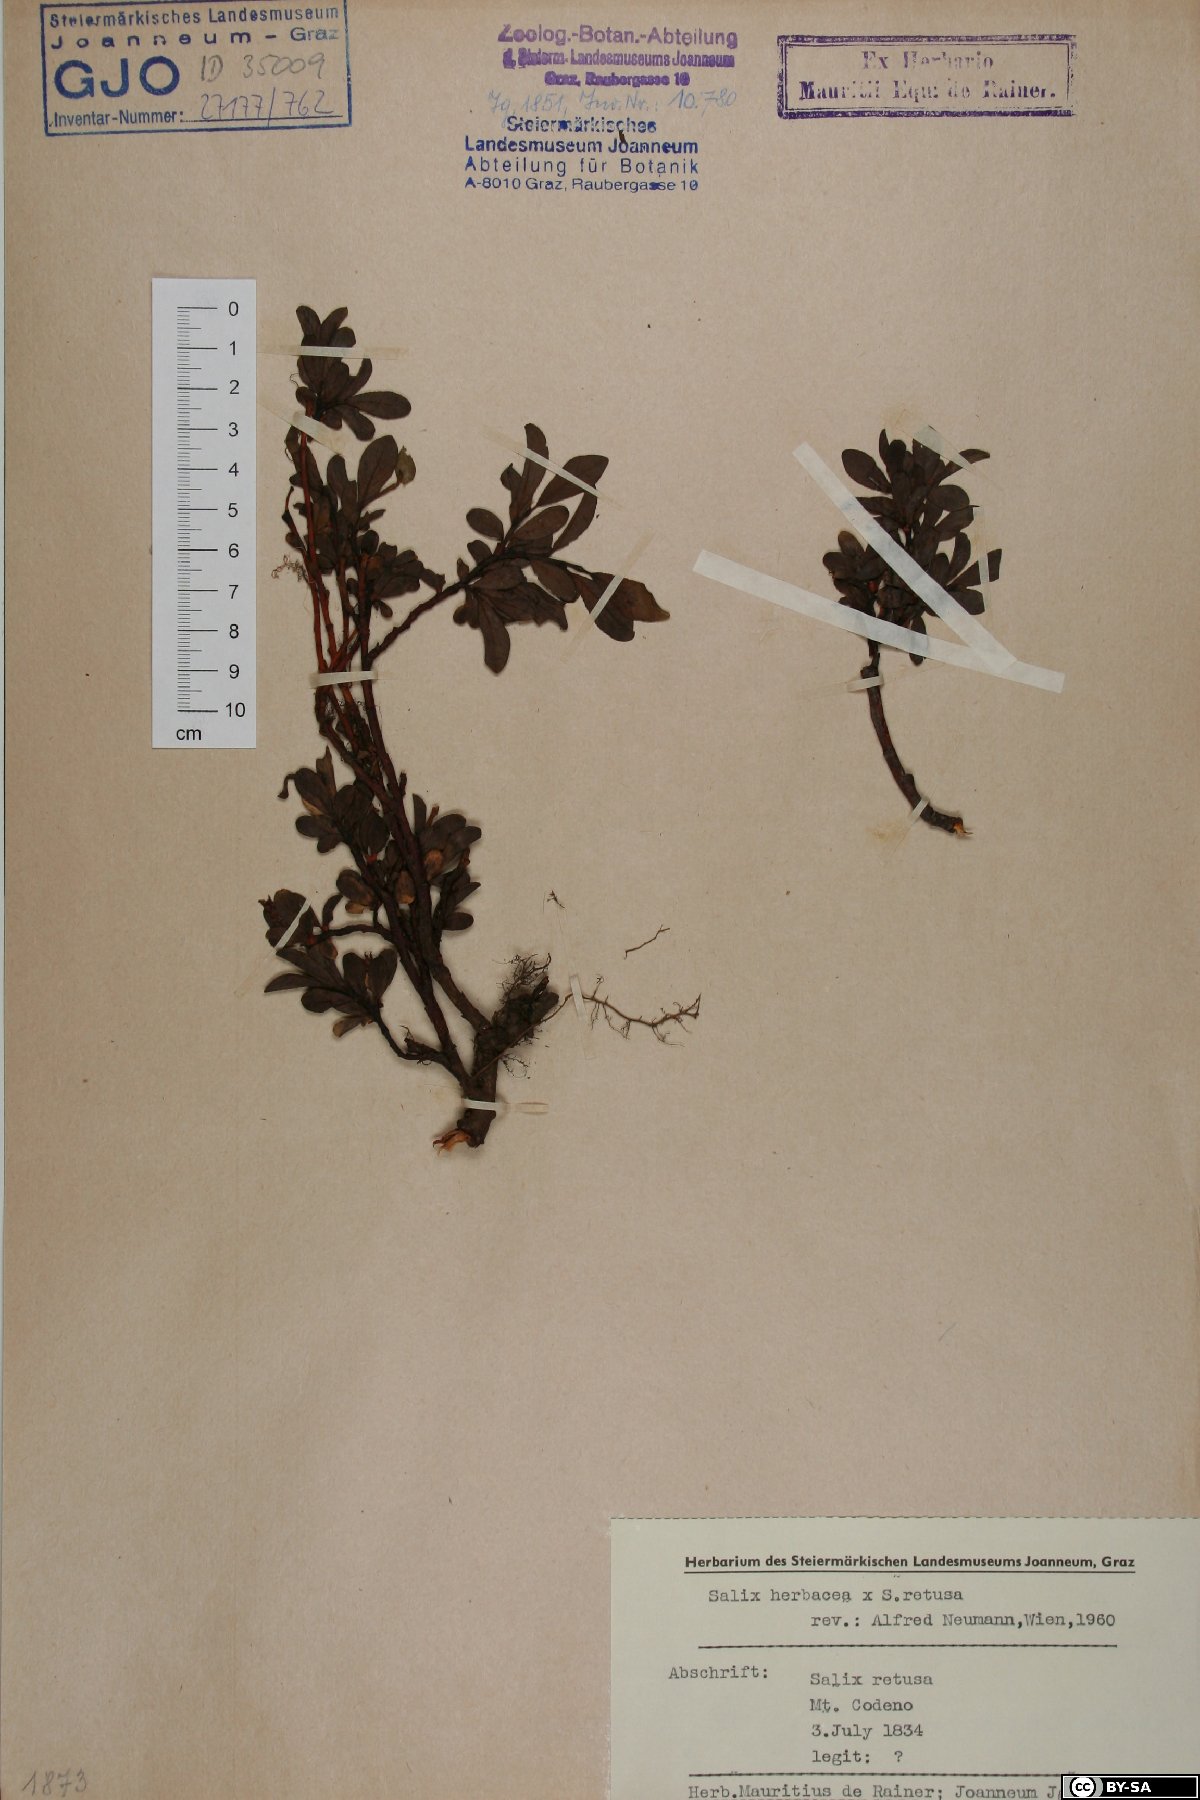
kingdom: Plantae
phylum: Tracheophyta
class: Magnoliopsida
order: Malpighiales
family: Salicaceae
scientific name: Salicaceae
